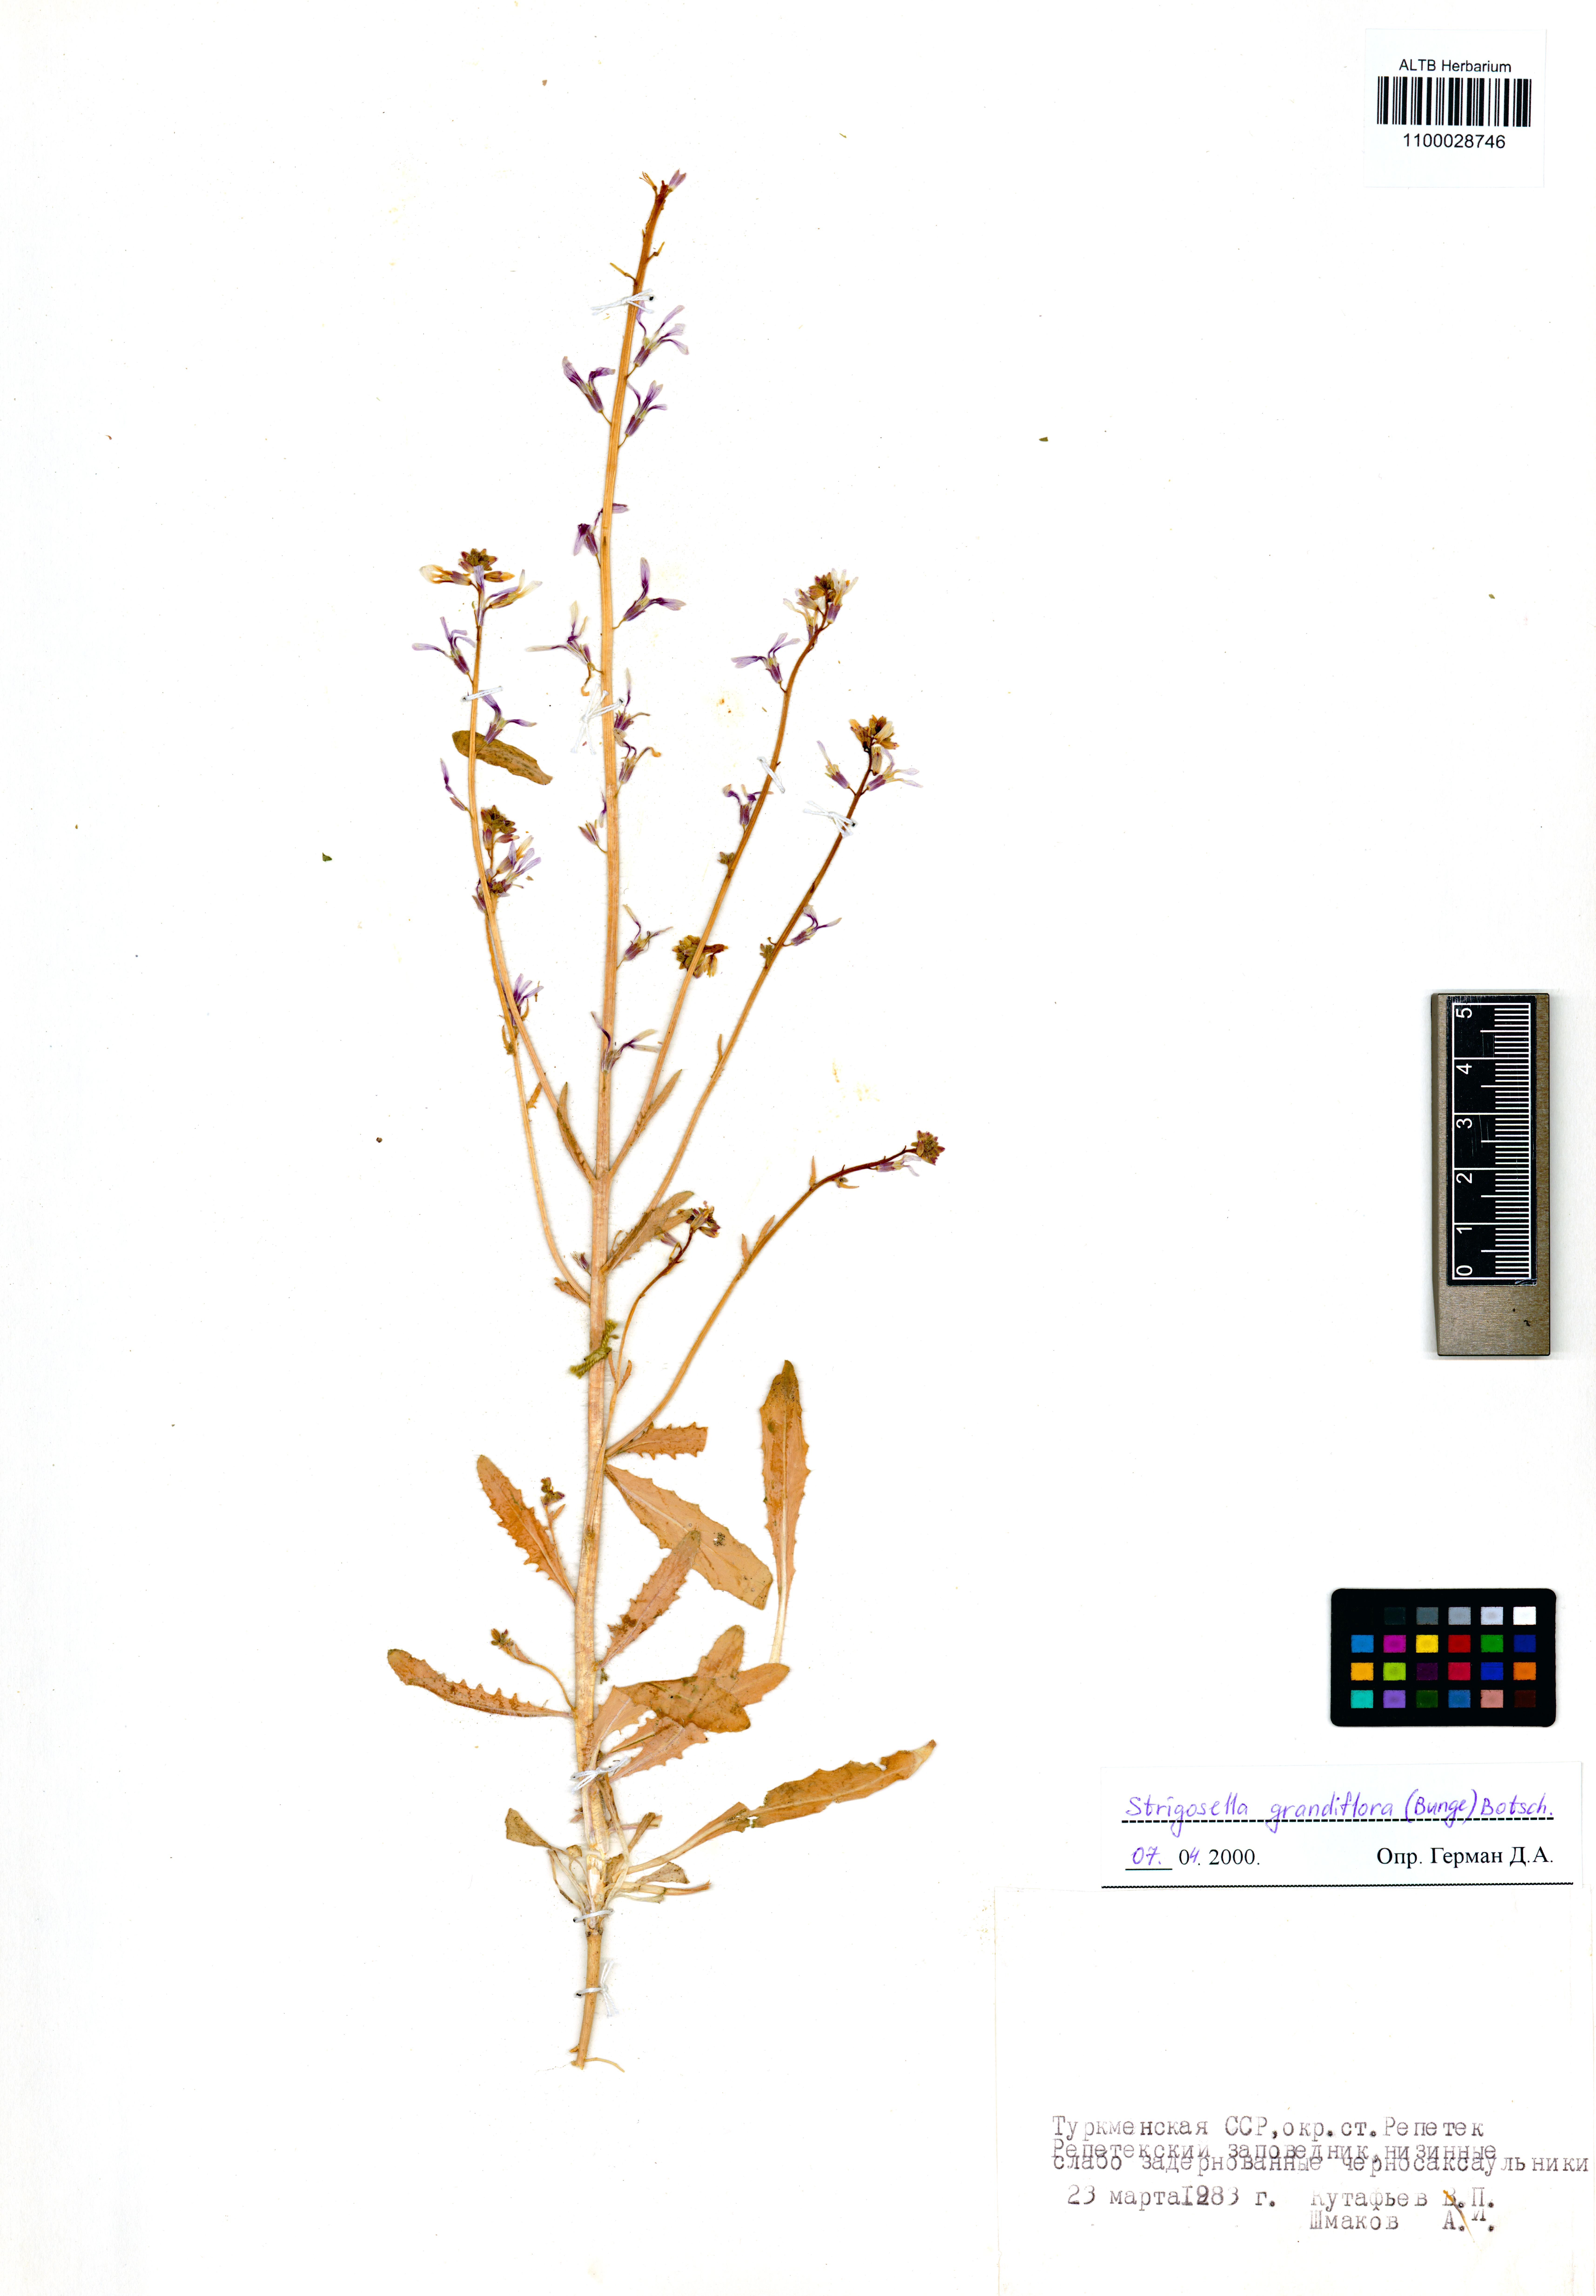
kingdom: Plantae
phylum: Tracheophyta
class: Magnoliopsida
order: Brassicales
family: Brassicaceae
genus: Strigosella
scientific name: Strigosella grandiflora
